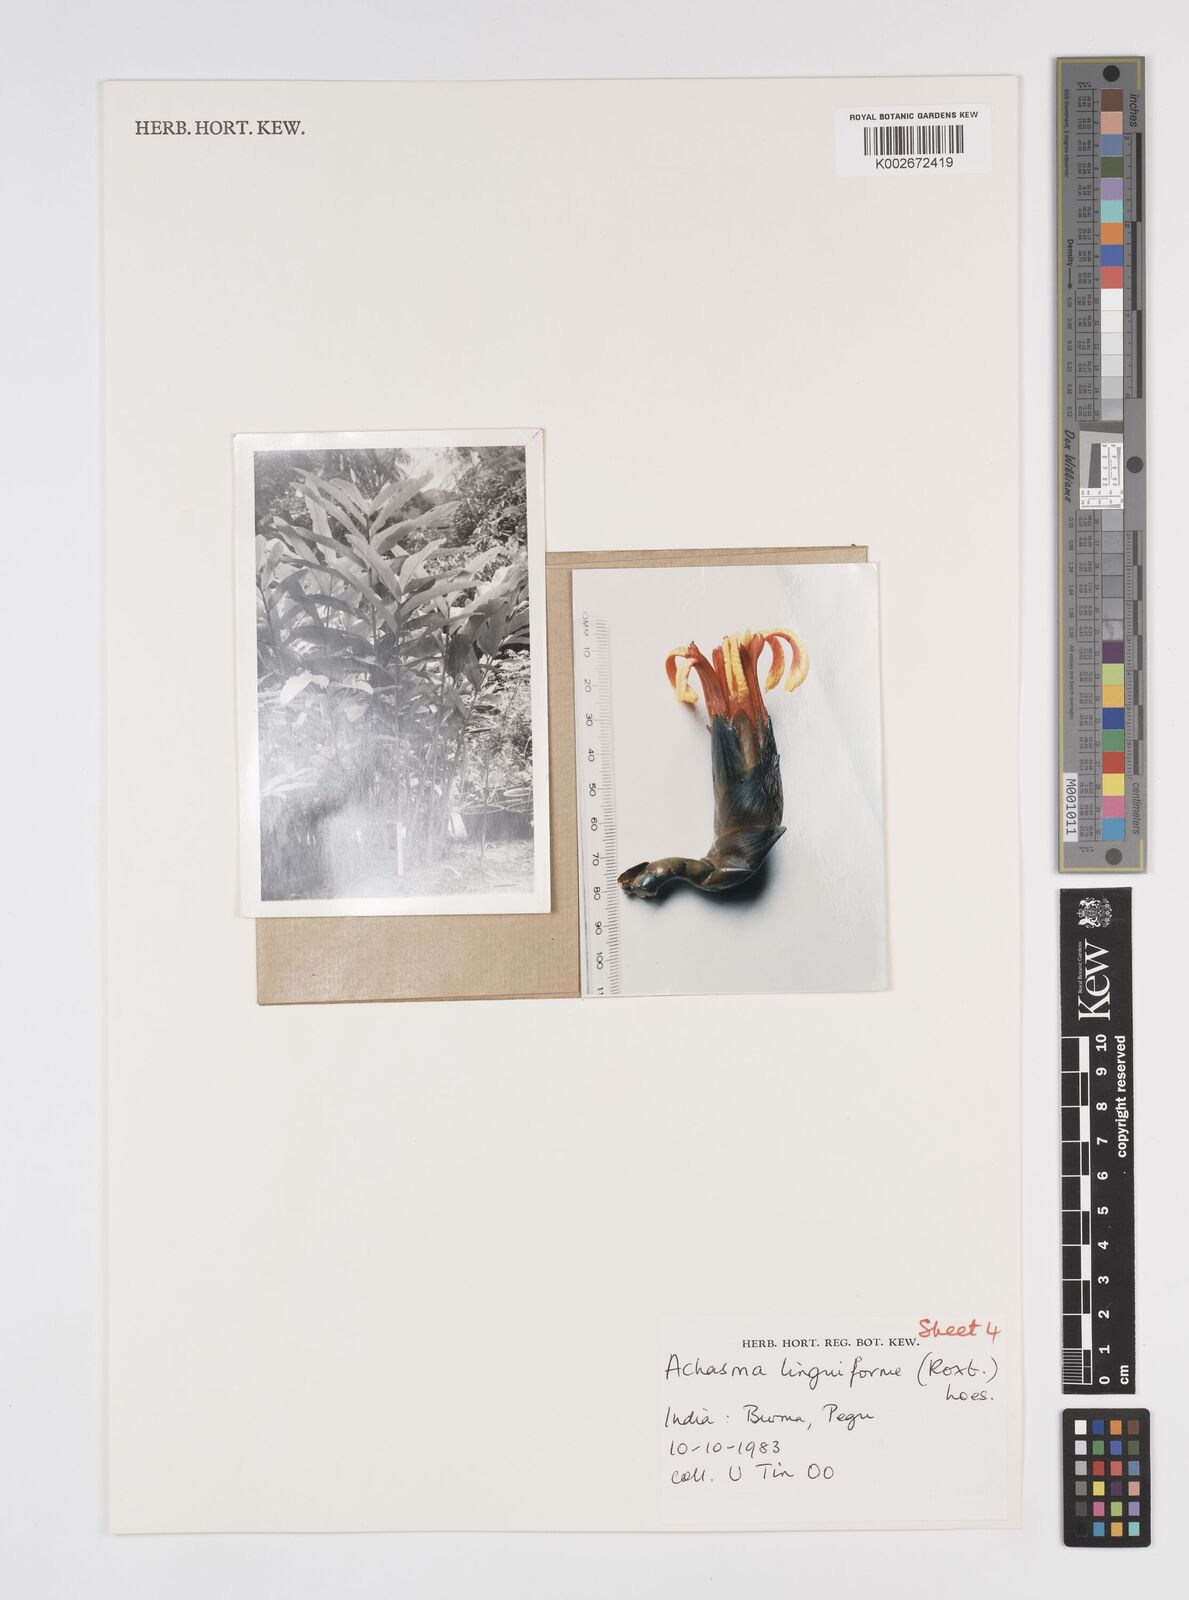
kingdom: Plantae
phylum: Tracheophyta
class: Liliopsida
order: Zingiberales
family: Zingiberaceae
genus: Etlingera
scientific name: Etlingera linguiformis
